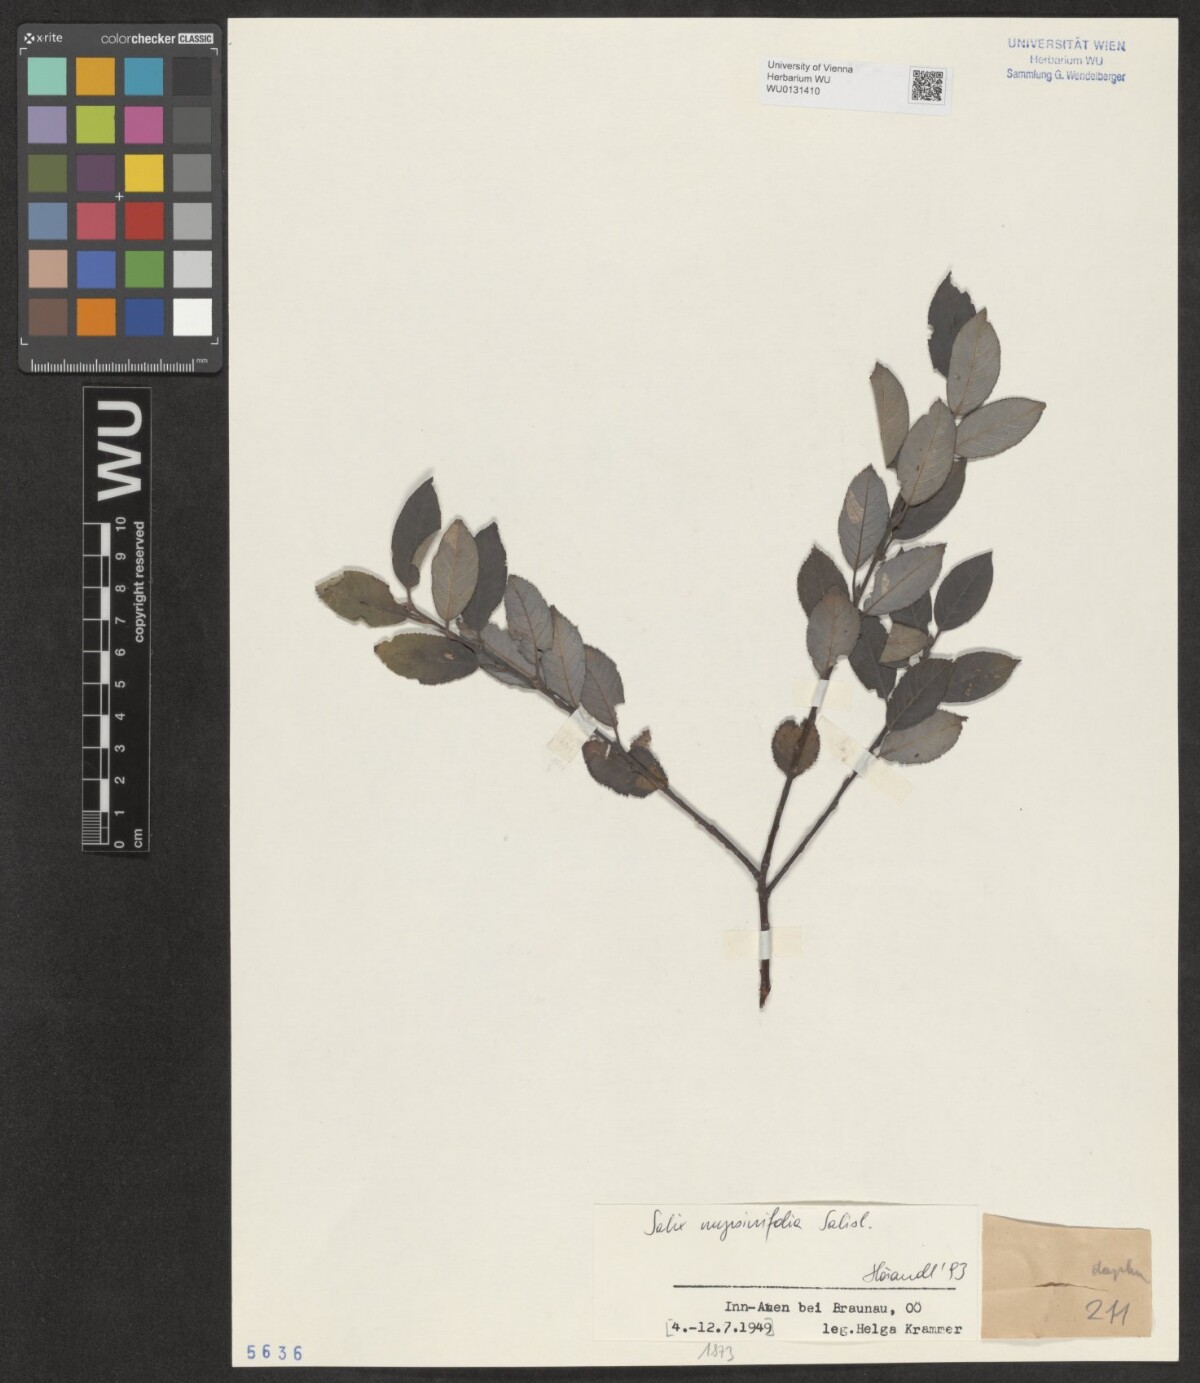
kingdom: Plantae
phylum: Tracheophyta
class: Magnoliopsida
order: Malpighiales
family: Salicaceae
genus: Salix
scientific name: Salix myrsinifolia
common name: Dark-leaved willow
